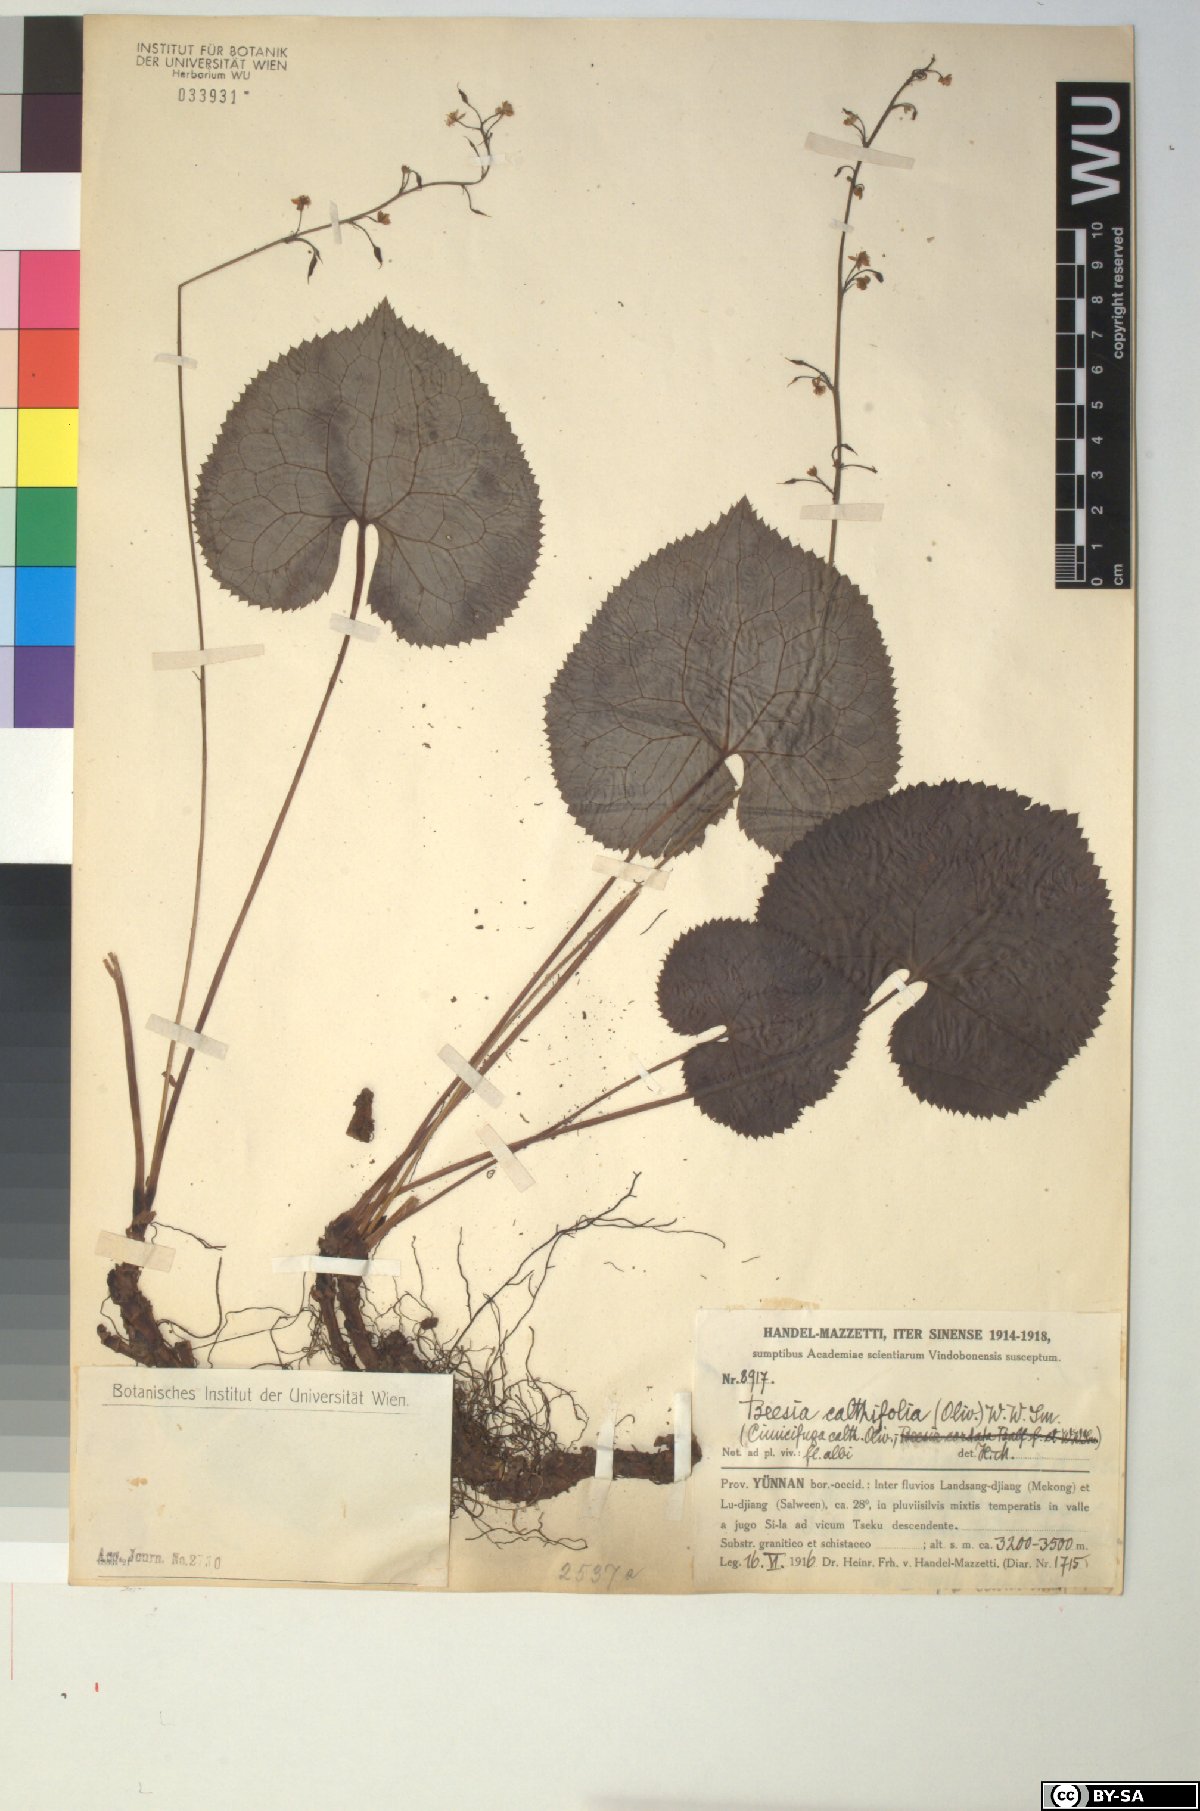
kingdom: Plantae
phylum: Tracheophyta
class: Magnoliopsida
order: Ranunculales
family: Ranunculaceae
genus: Beesia
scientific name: Beesia calthifolia
